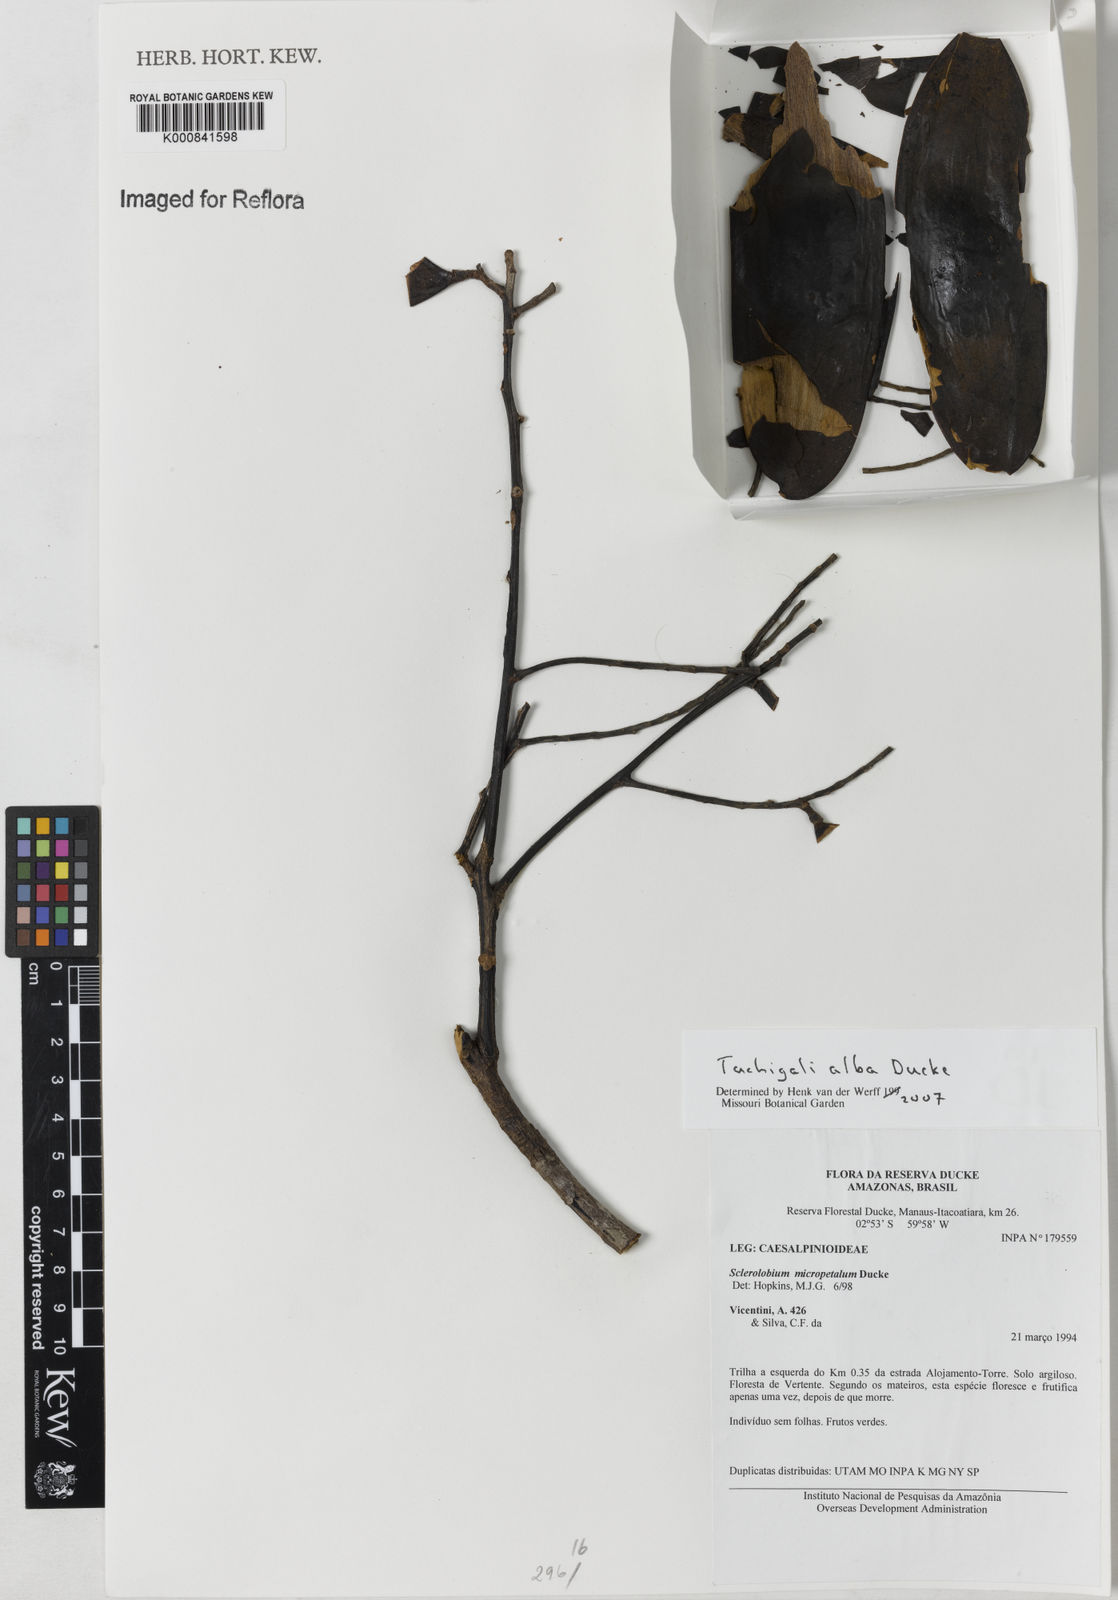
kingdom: Plantae
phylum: Tracheophyta
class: Magnoliopsida
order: Fabales
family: Fabaceae
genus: Tachigali
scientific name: Tachigali alba
